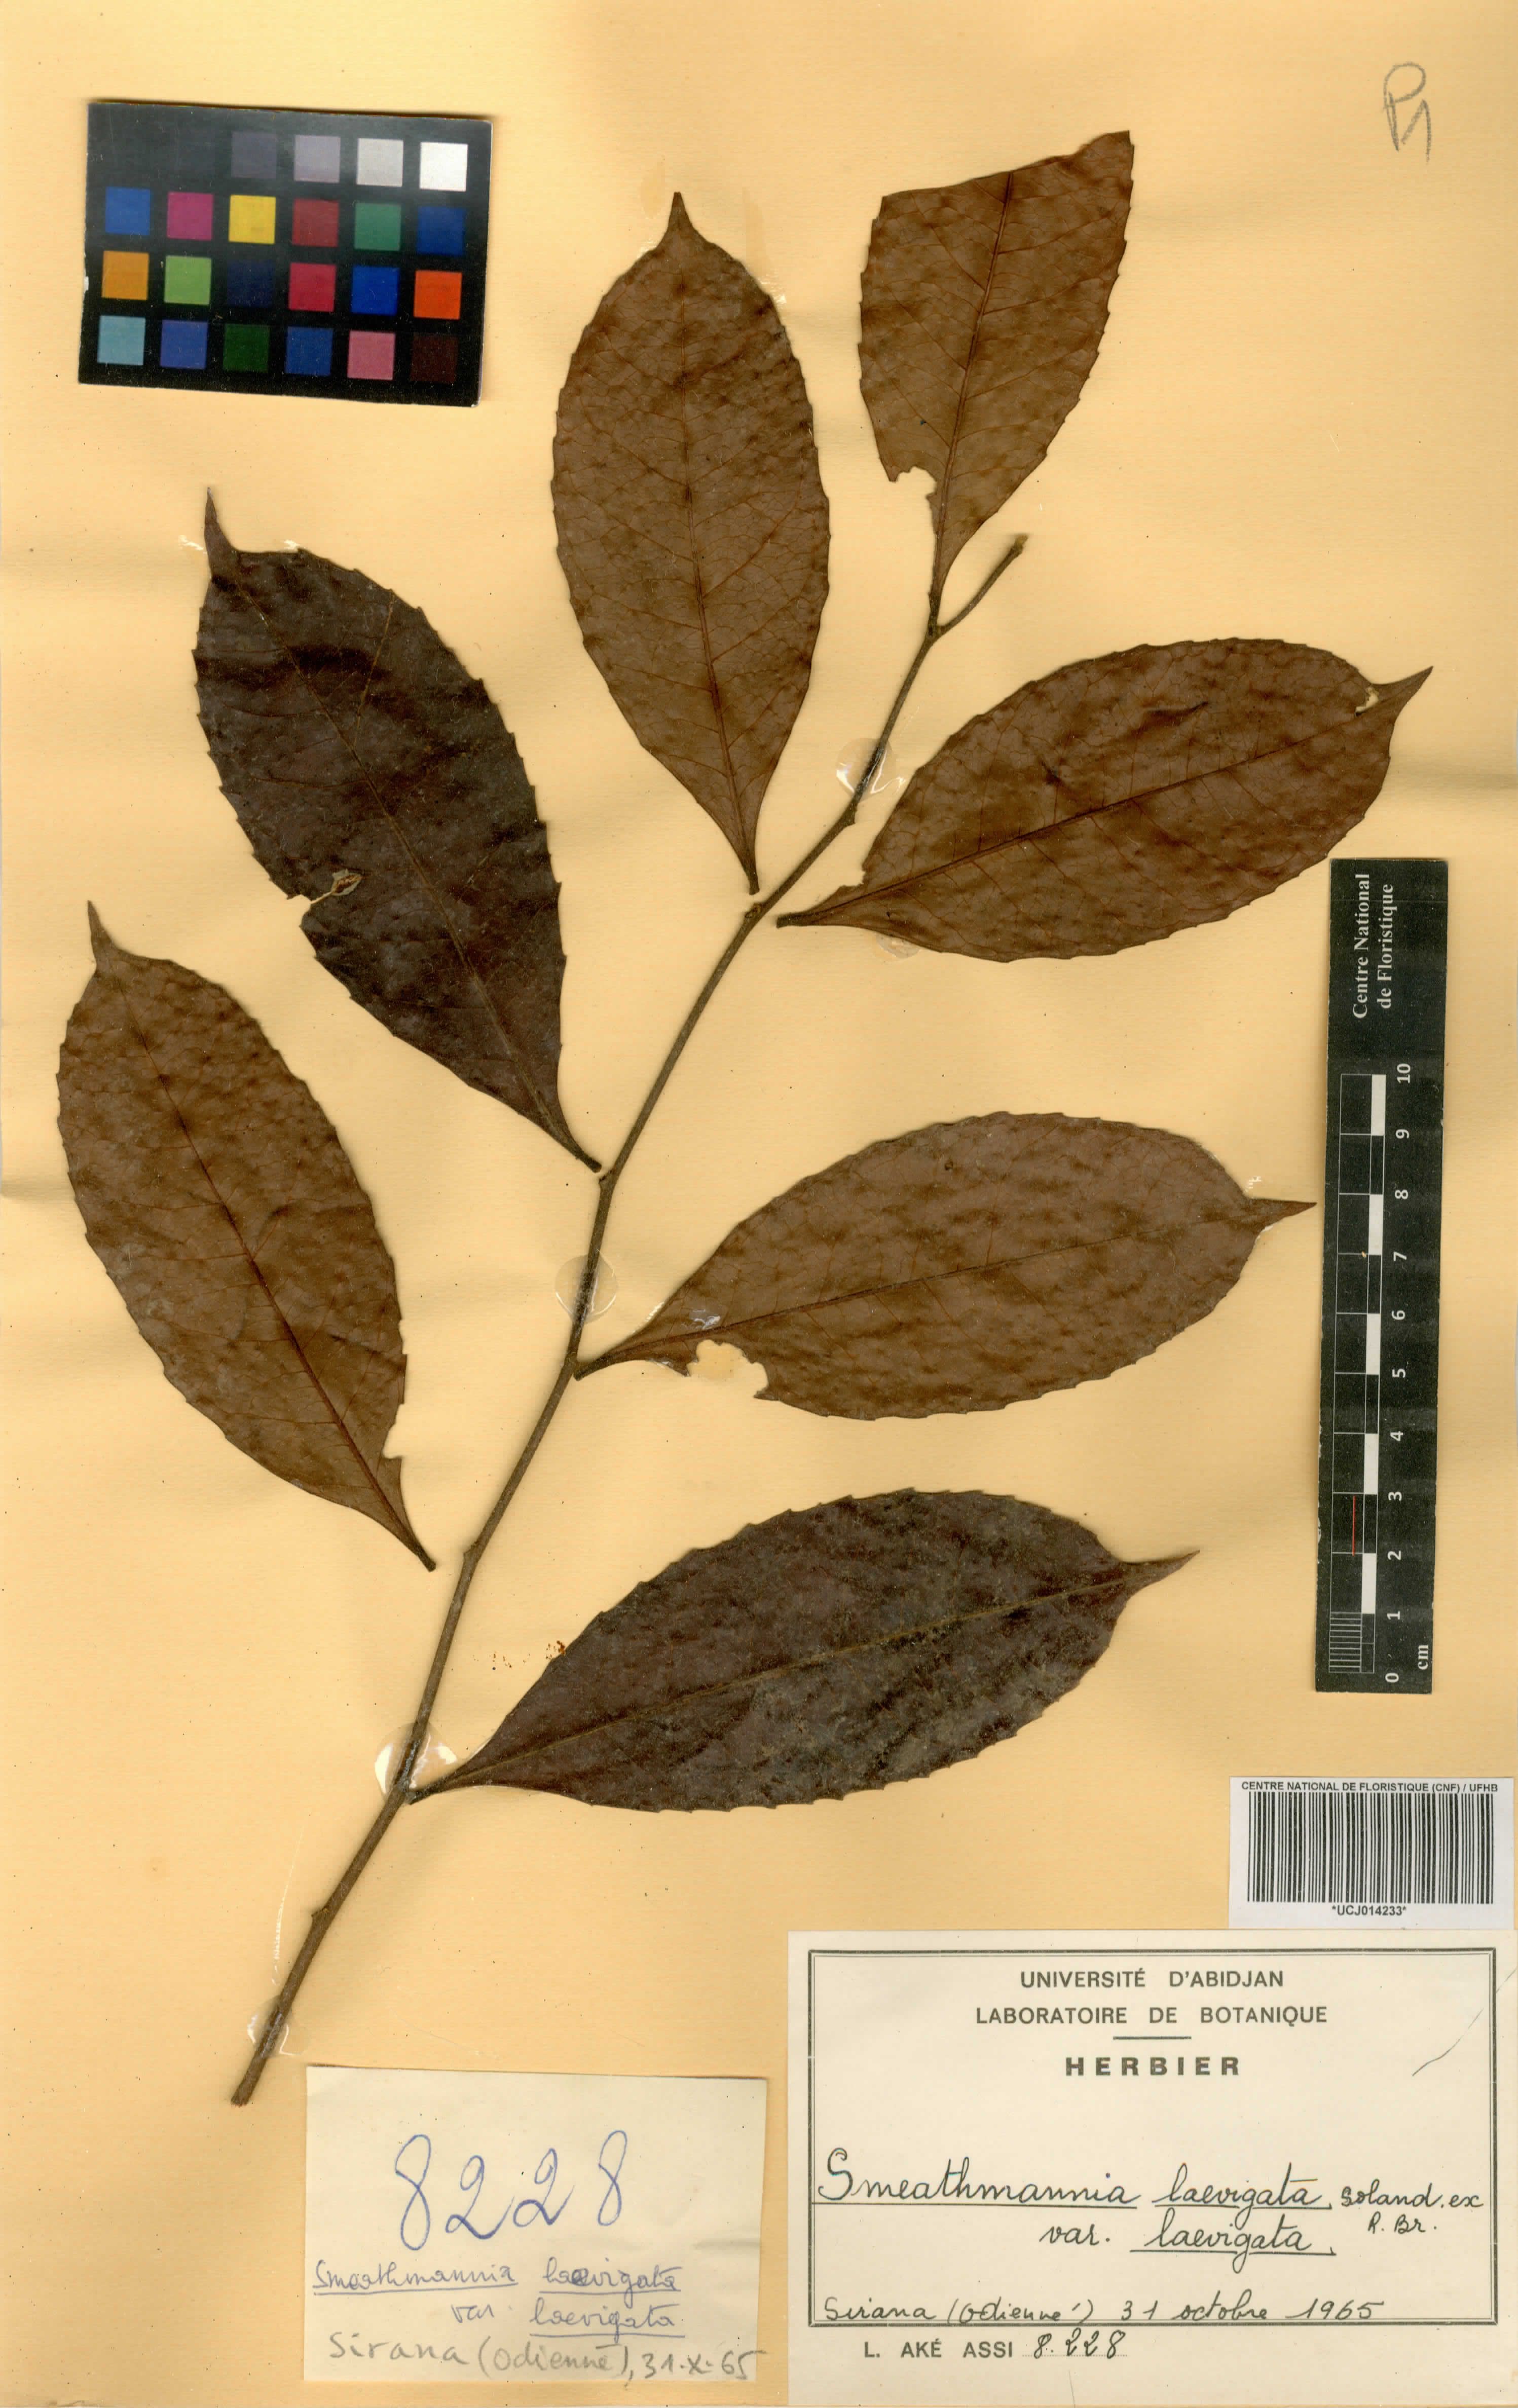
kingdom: Plantae
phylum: Tracheophyta
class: Magnoliopsida
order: Malpighiales
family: Passifloraceae
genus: Smeathmannia
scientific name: Smeathmannia laevigata
